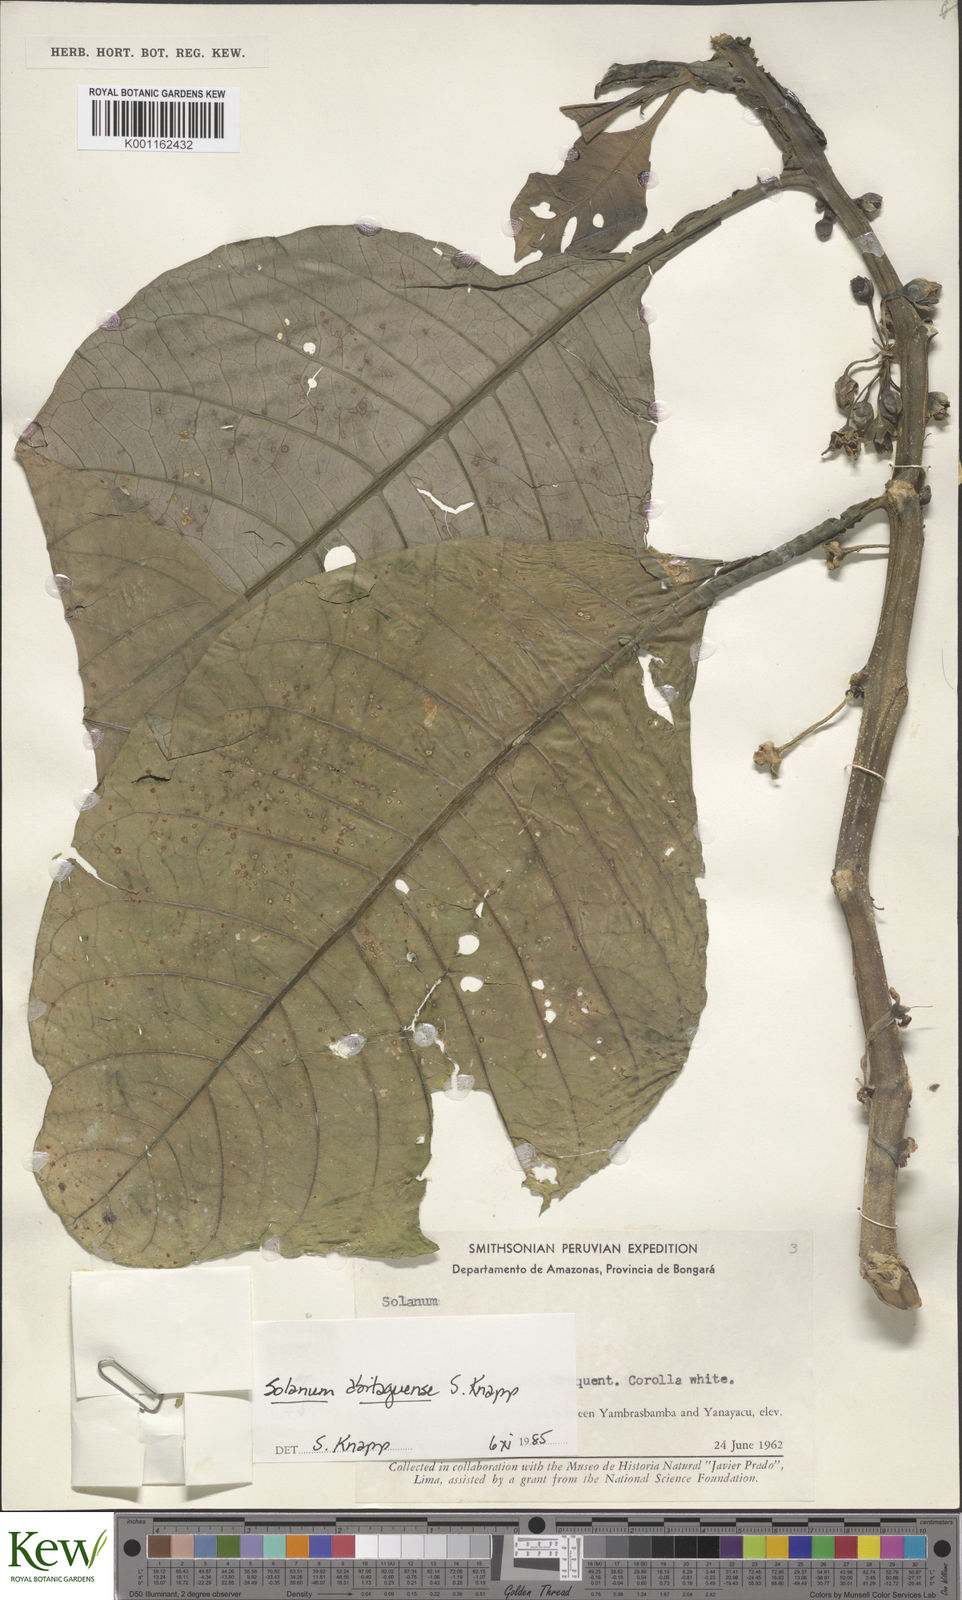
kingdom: Plantae
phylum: Tracheophyta
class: Magnoliopsida
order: Solanales
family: Solanaceae
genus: Solanum
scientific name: Solanum abitaguense
